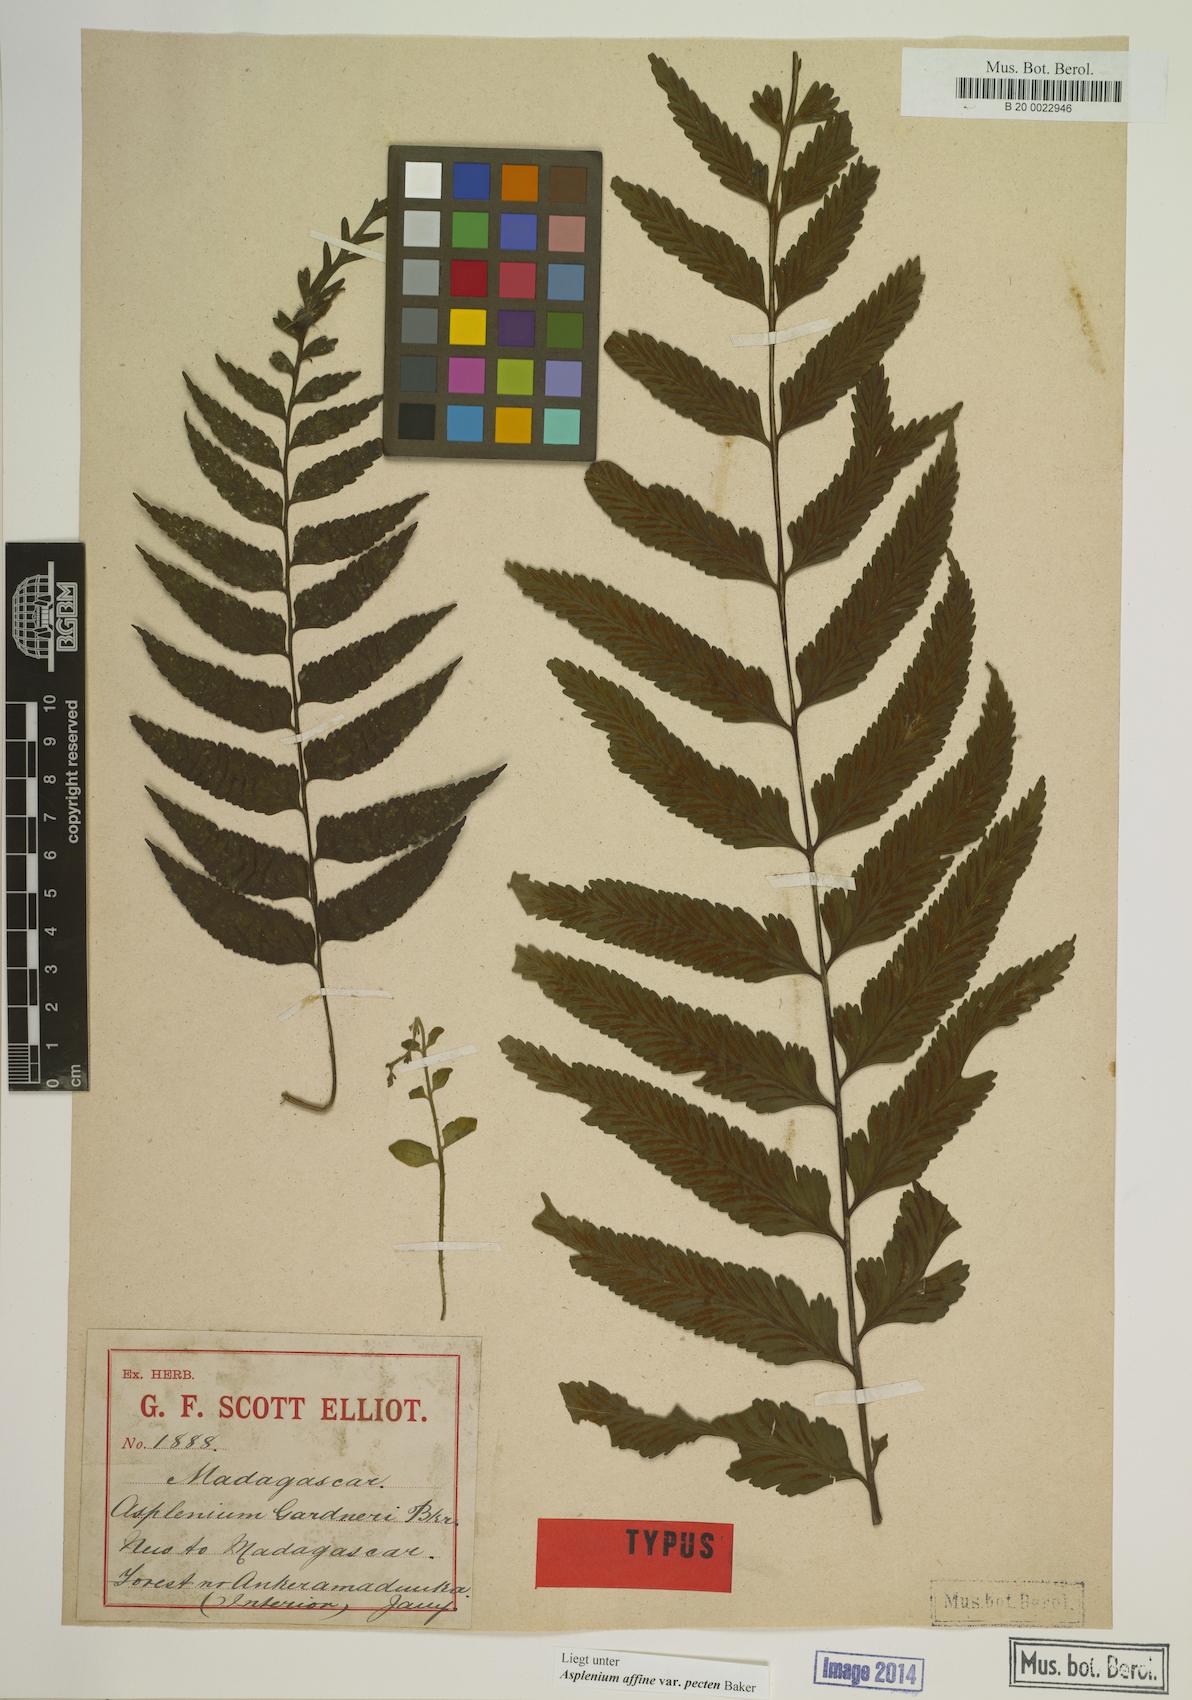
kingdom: Plantae
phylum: Tracheophyta
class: Polypodiopsida
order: Polypodiales
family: Aspleniaceae
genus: Asplenium
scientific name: Asplenium herpetopteris
